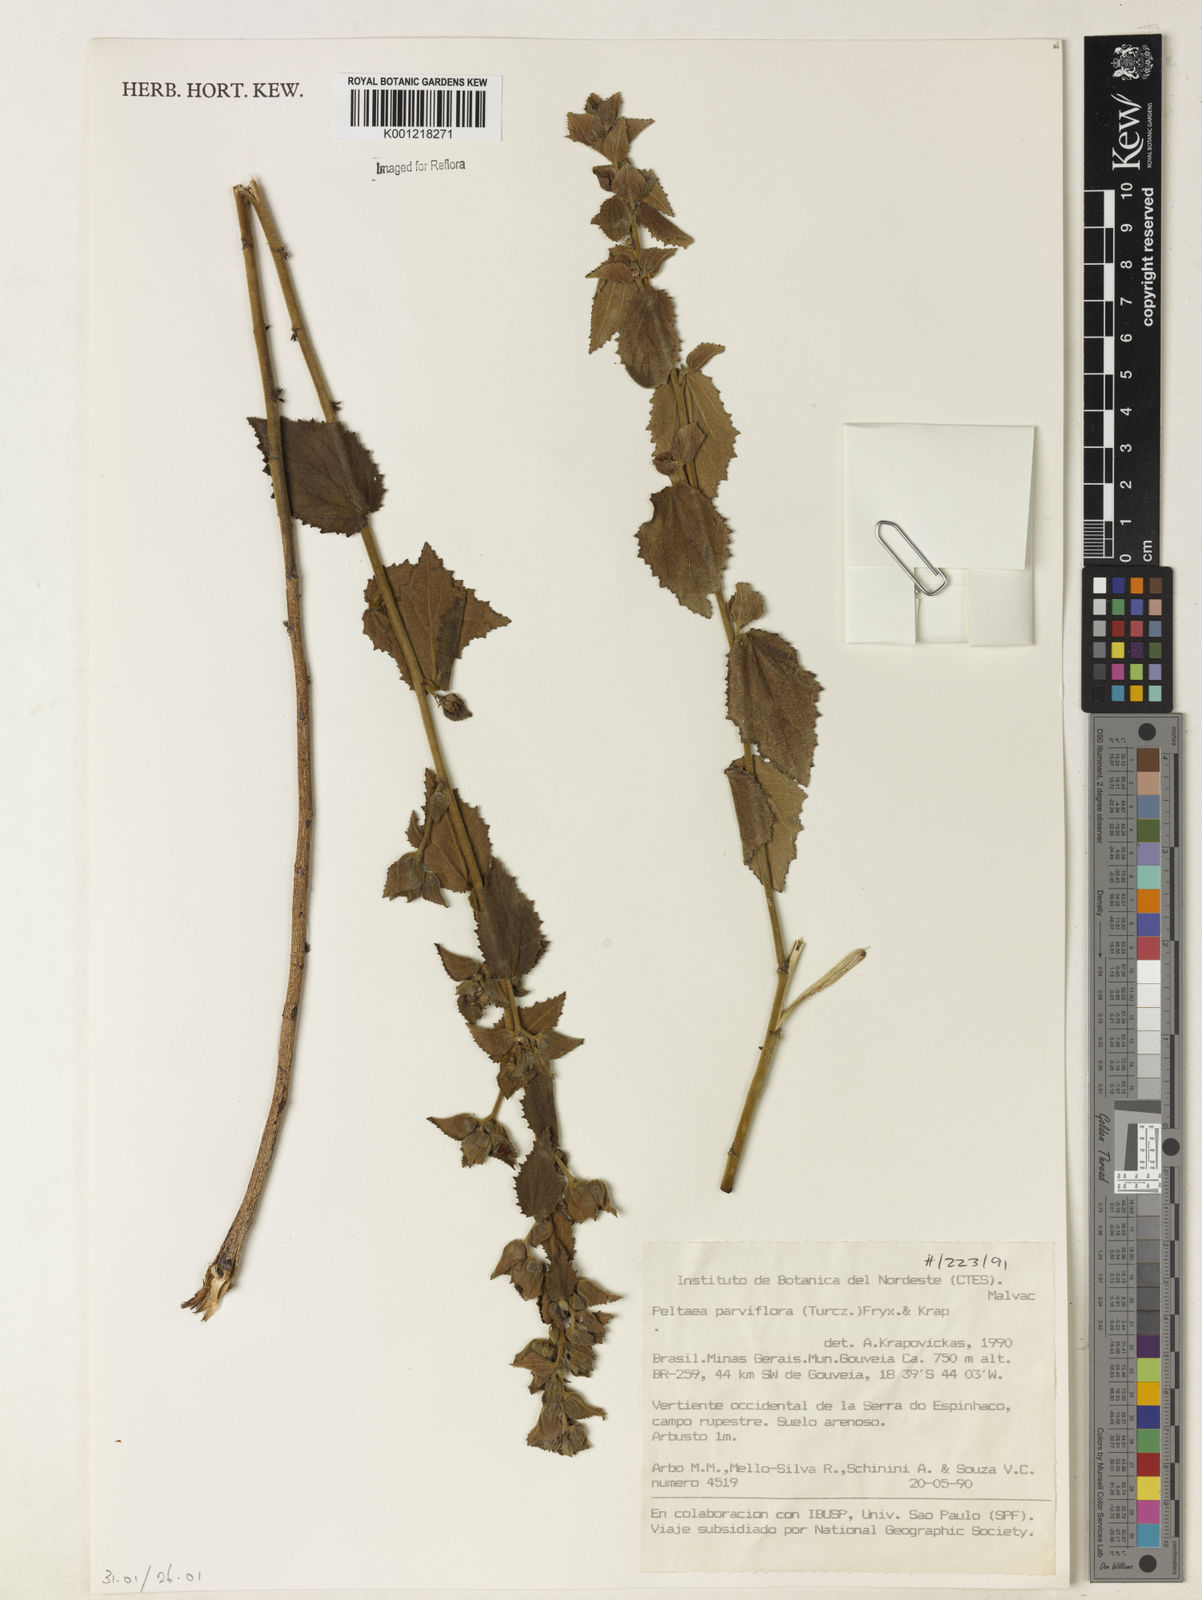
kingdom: Plantae
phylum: Tracheophyta
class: Magnoliopsida
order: Malvales
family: Malvaceae
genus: Peltaea
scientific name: Peltaea parviflora
